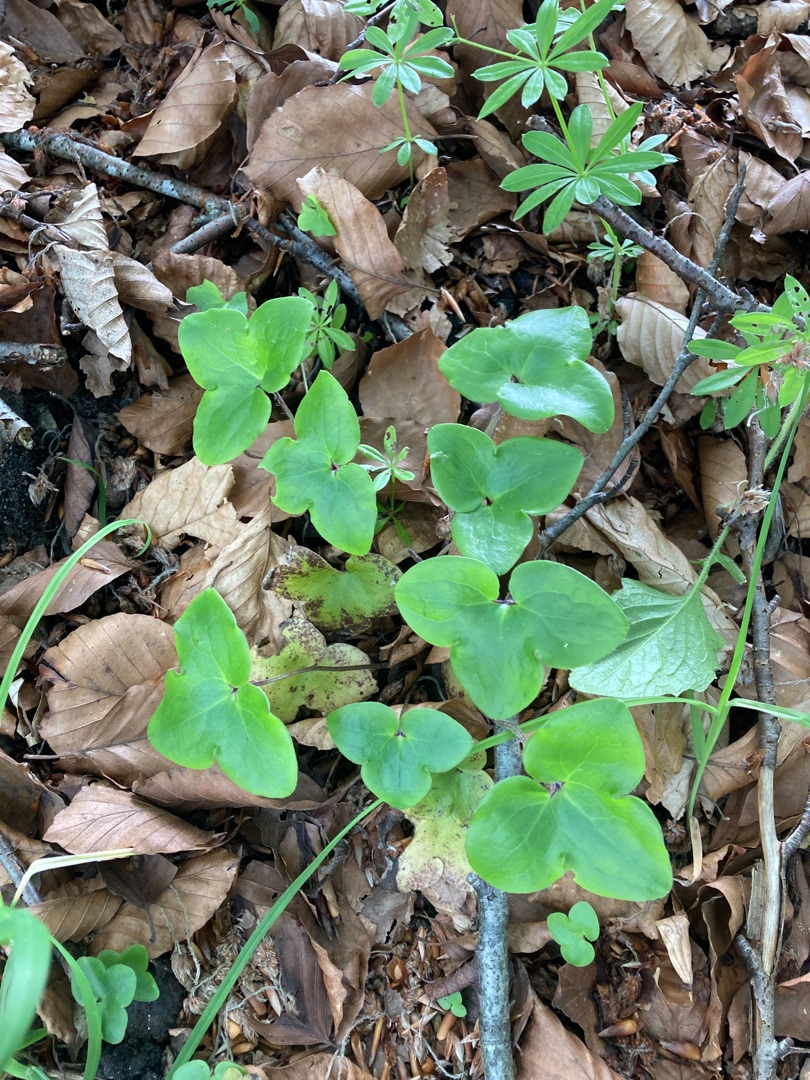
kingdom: Plantae
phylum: Tracheophyta
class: Magnoliopsida
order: Ranunculales
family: Ranunculaceae
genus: Hepatica
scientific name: Hepatica nobilis
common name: Blå anemone
